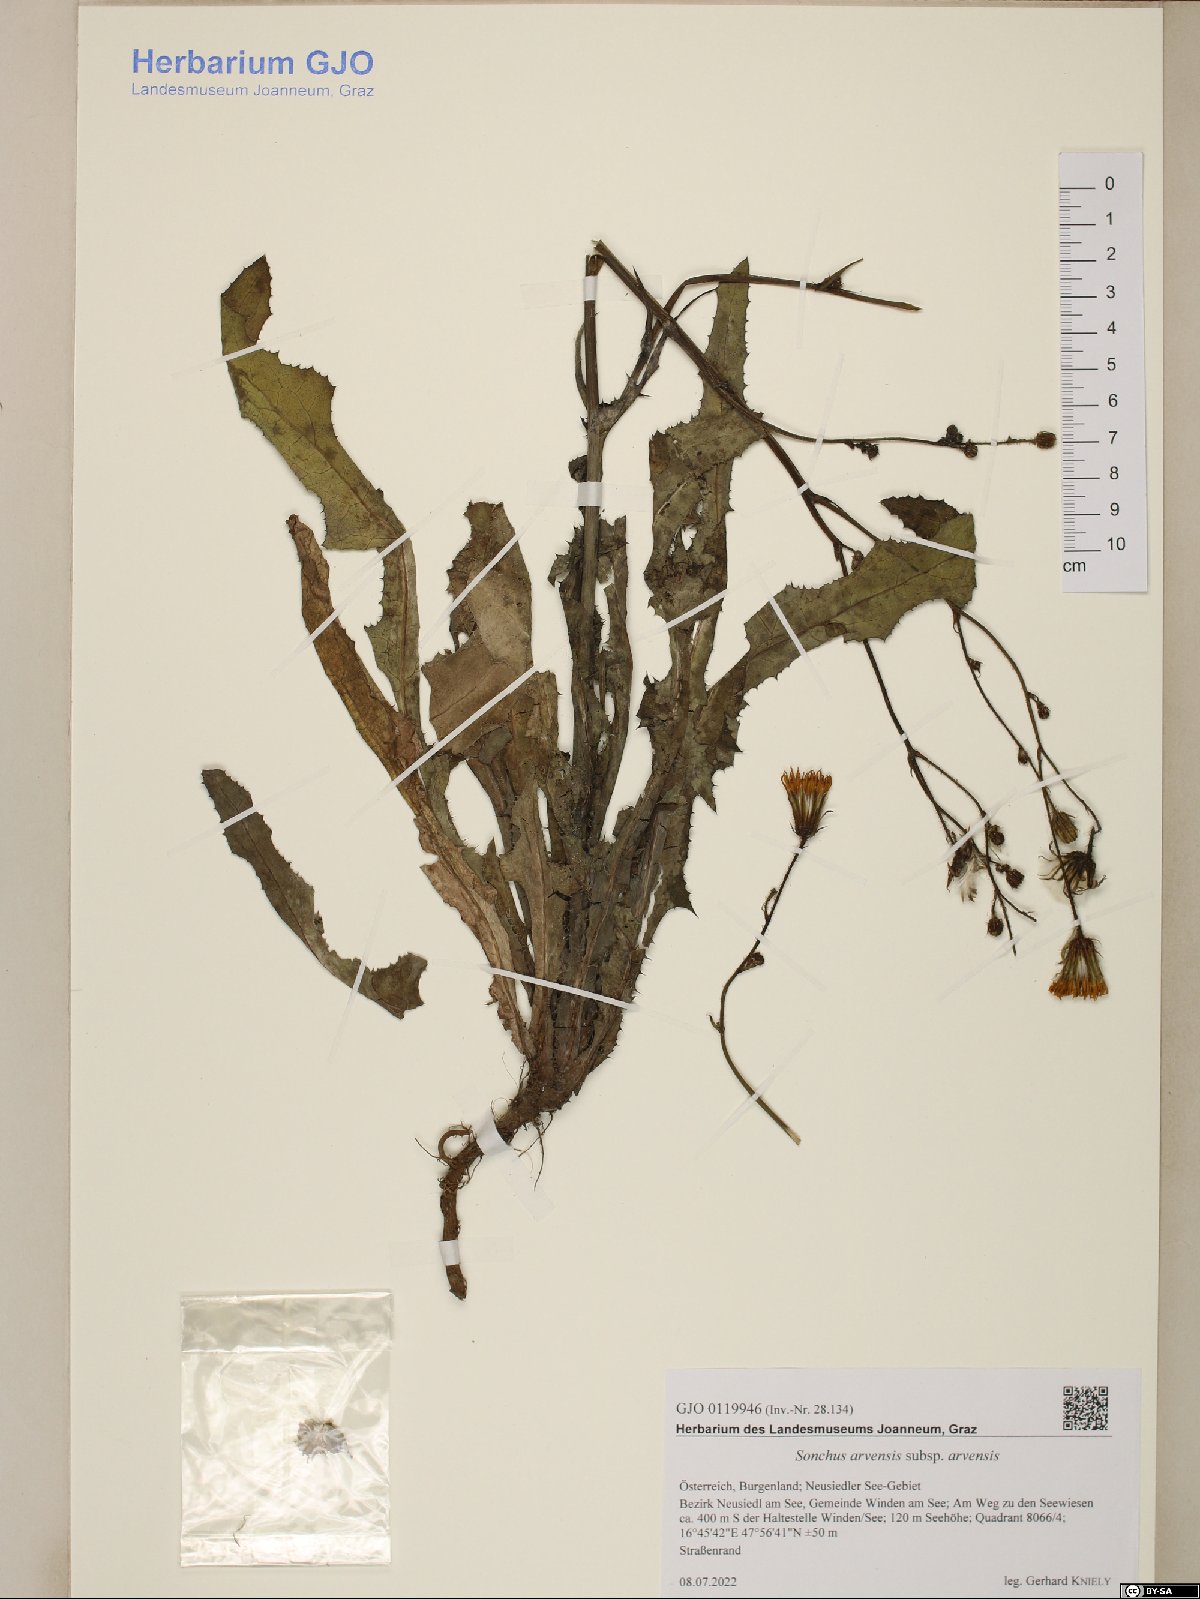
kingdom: Plantae
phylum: Tracheophyta
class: Magnoliopsida
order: Asterales
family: Asteraceae
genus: Sonchus
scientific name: Sonchus arvensis
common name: Perennial sow-thistle
